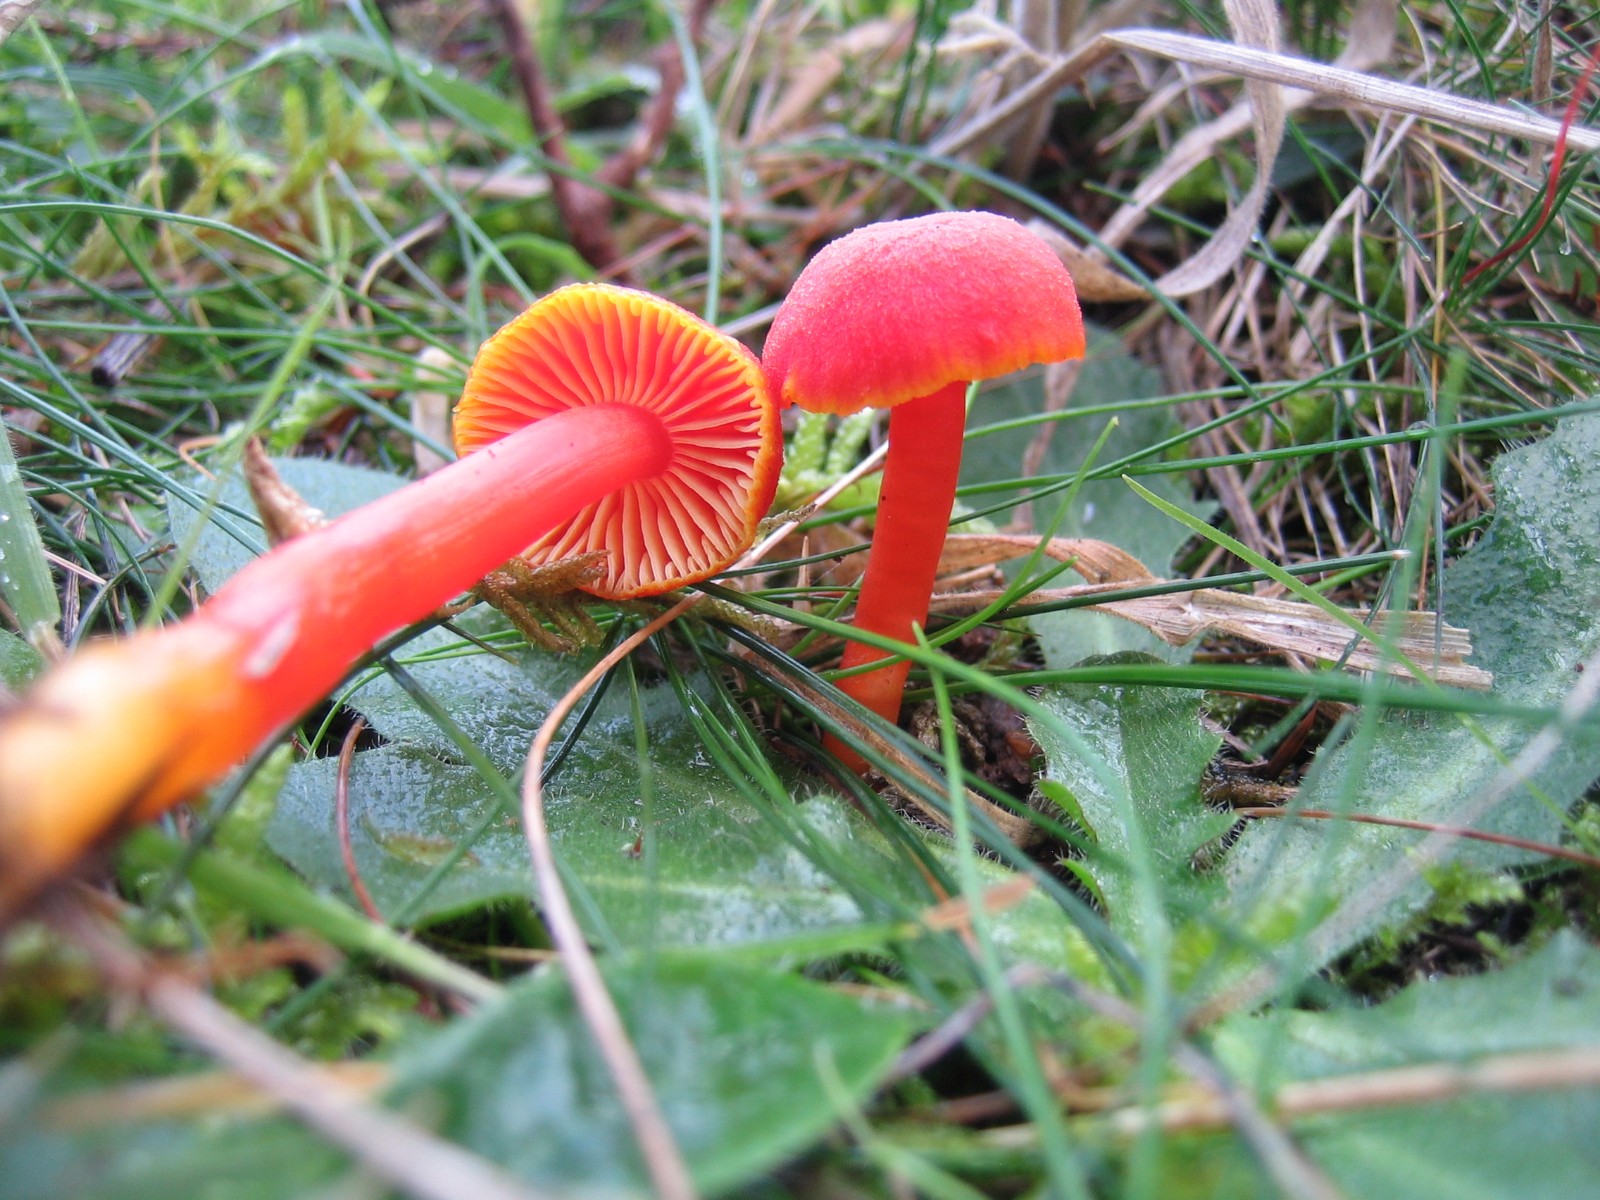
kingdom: Fungi
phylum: Basidiomycota
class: Agaricomycetes
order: Agaricales
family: Hygrophoraceae
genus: Hygrocybe
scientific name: Hygrocybe miniata
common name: mønje-vokshat
